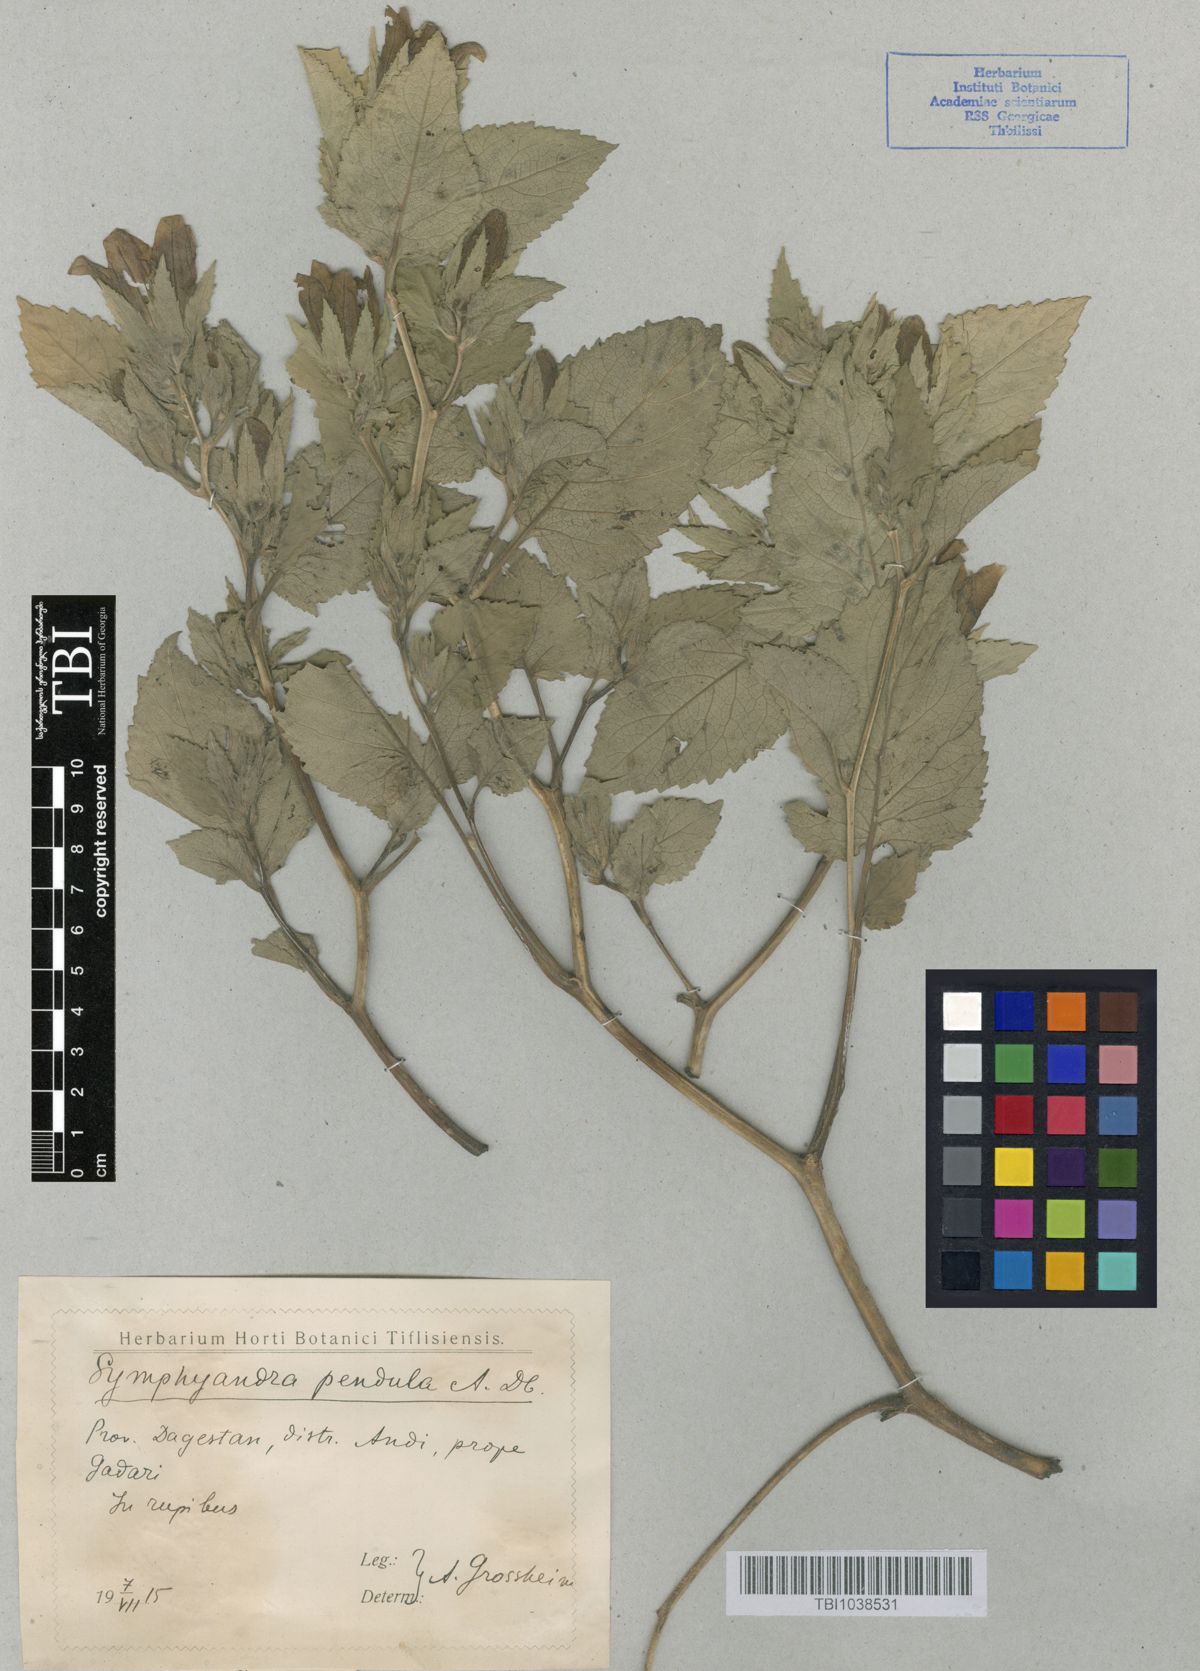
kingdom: Plantae
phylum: Tracheophyta
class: Magnoliopsida
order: Asterales
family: Campanulaceae
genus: Campanula
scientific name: Campanula pendula
